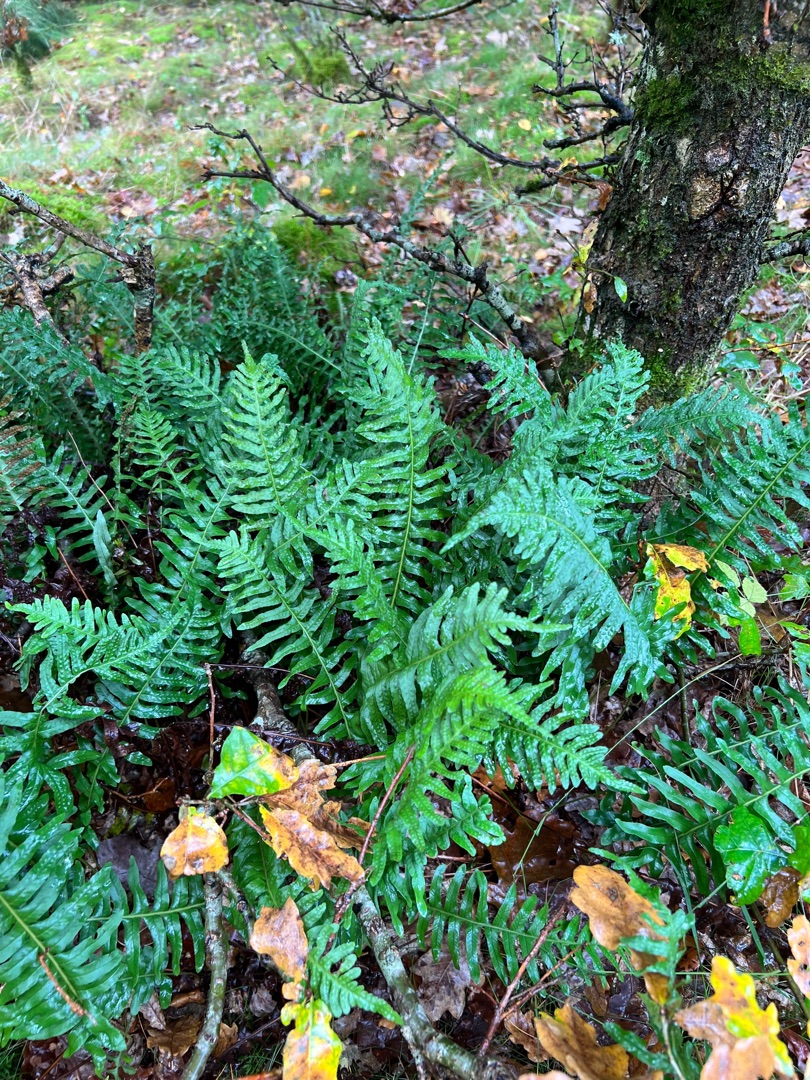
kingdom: Plantae
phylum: Tracheophyta
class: Polypodiopsida
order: Polypodiales
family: Polypodiaceae
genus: Polypodium
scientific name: Polypodium vulgare
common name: Almindelig engelsød
